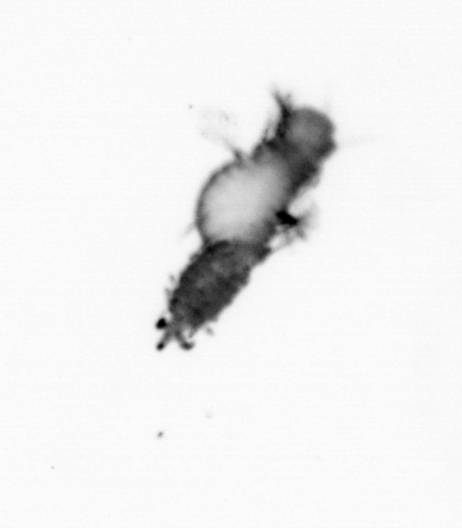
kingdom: Animalia
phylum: Annelida
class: Polychaeta
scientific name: Polychaeta
